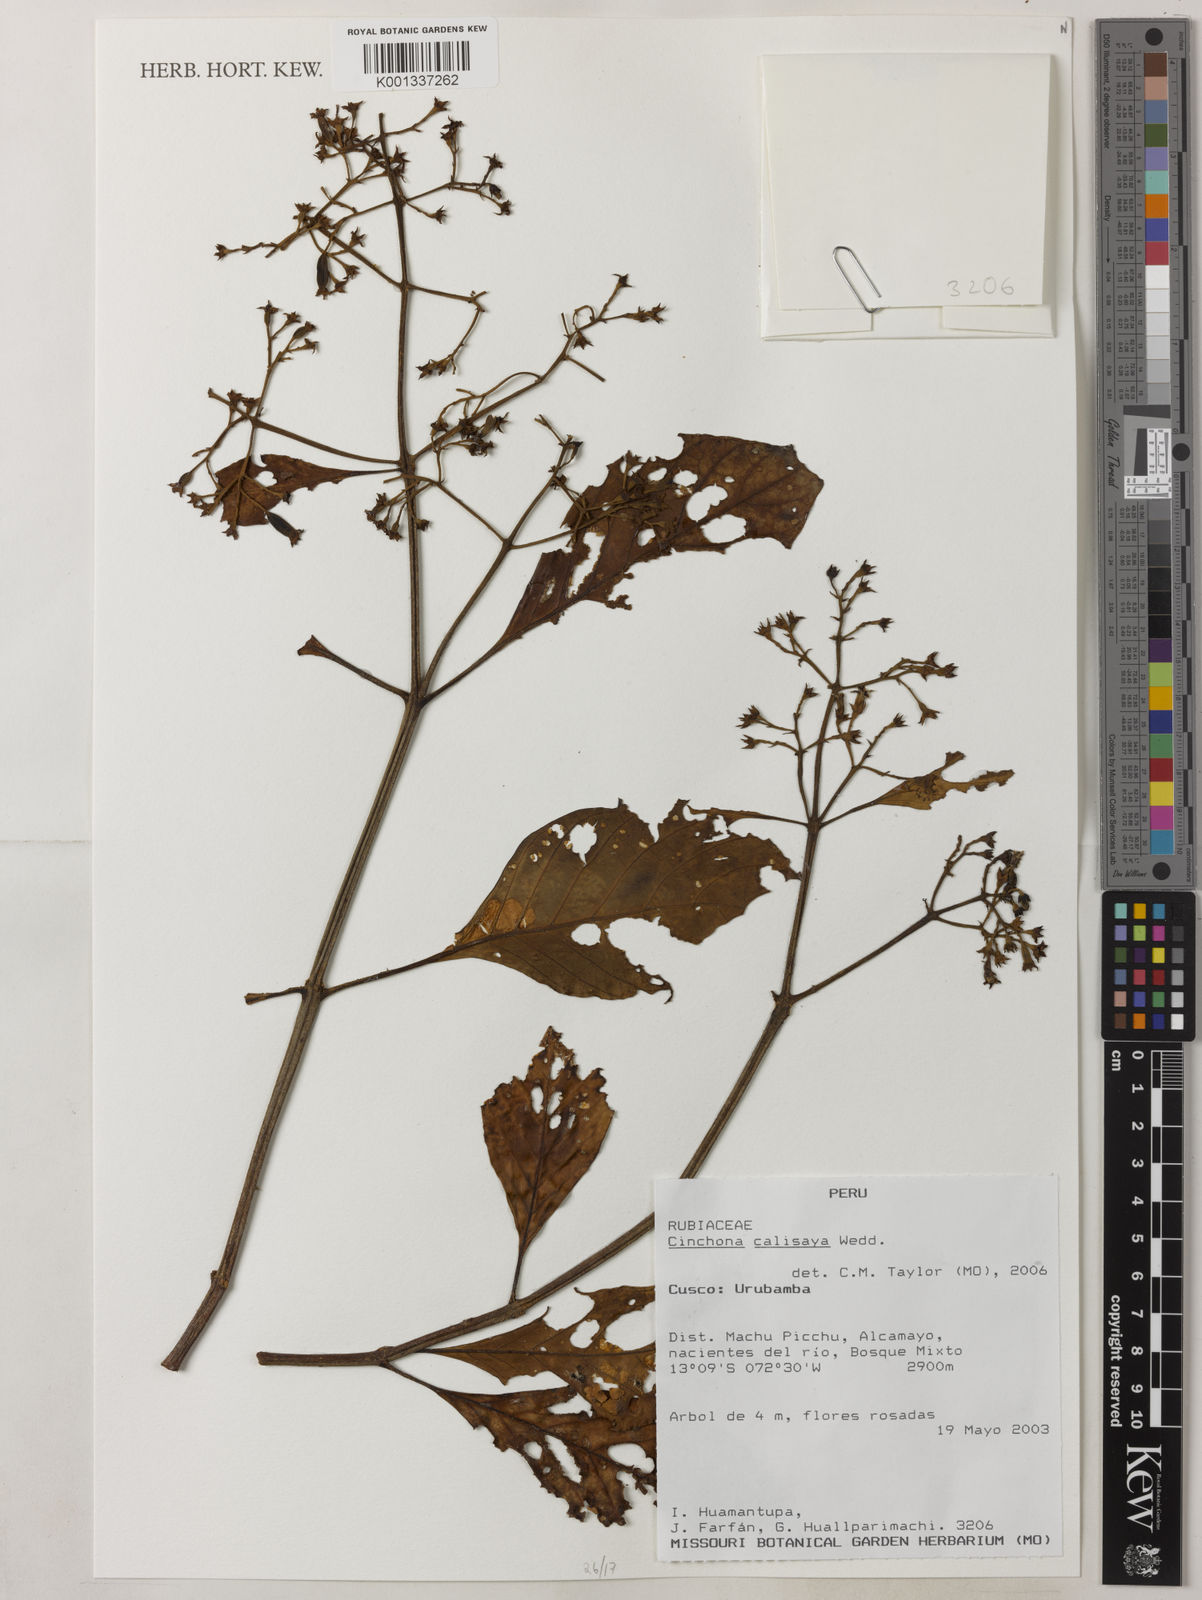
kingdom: Plantae
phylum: Tracheophyta
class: Magnoliopsida
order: Gentianales
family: Rubiaceae
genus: Cinchona
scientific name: Cinchona calisaya
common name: Ledgerbark
